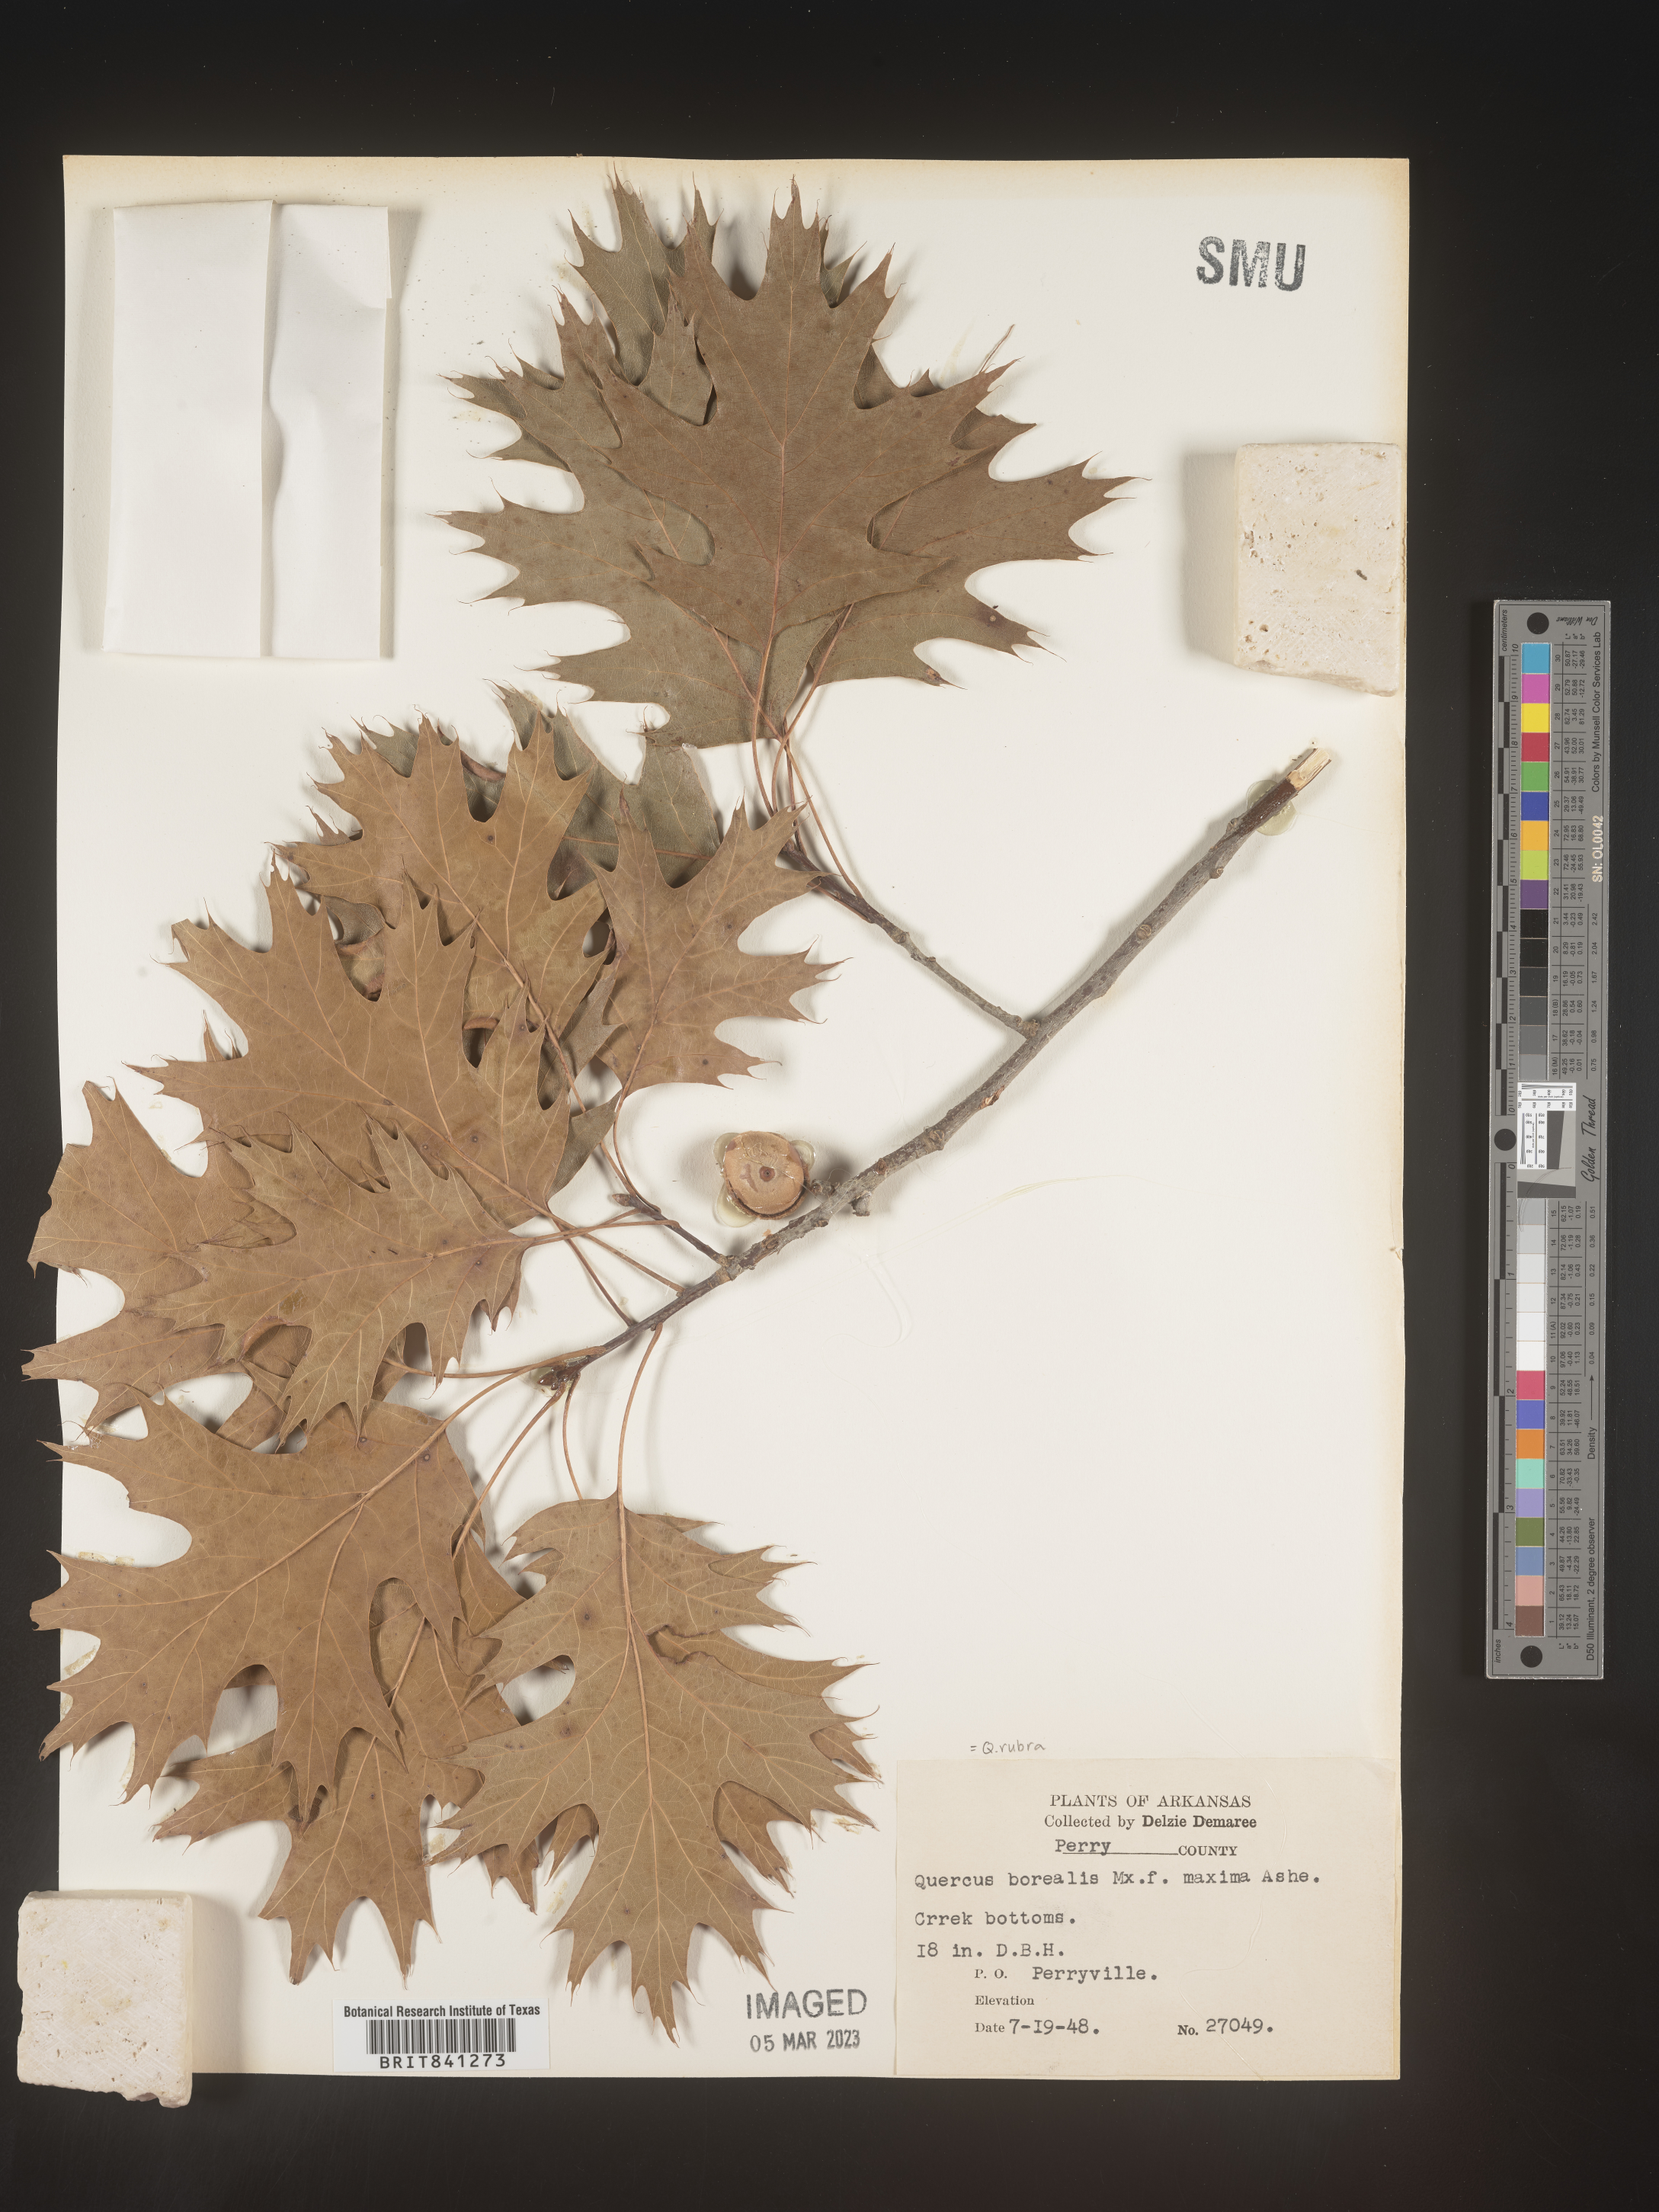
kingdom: Plantae
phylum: Tracheophyta
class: Magnoliopsida
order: Fagales
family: Fagaceae
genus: Quercus
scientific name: Quercus rubra
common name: Red oak
